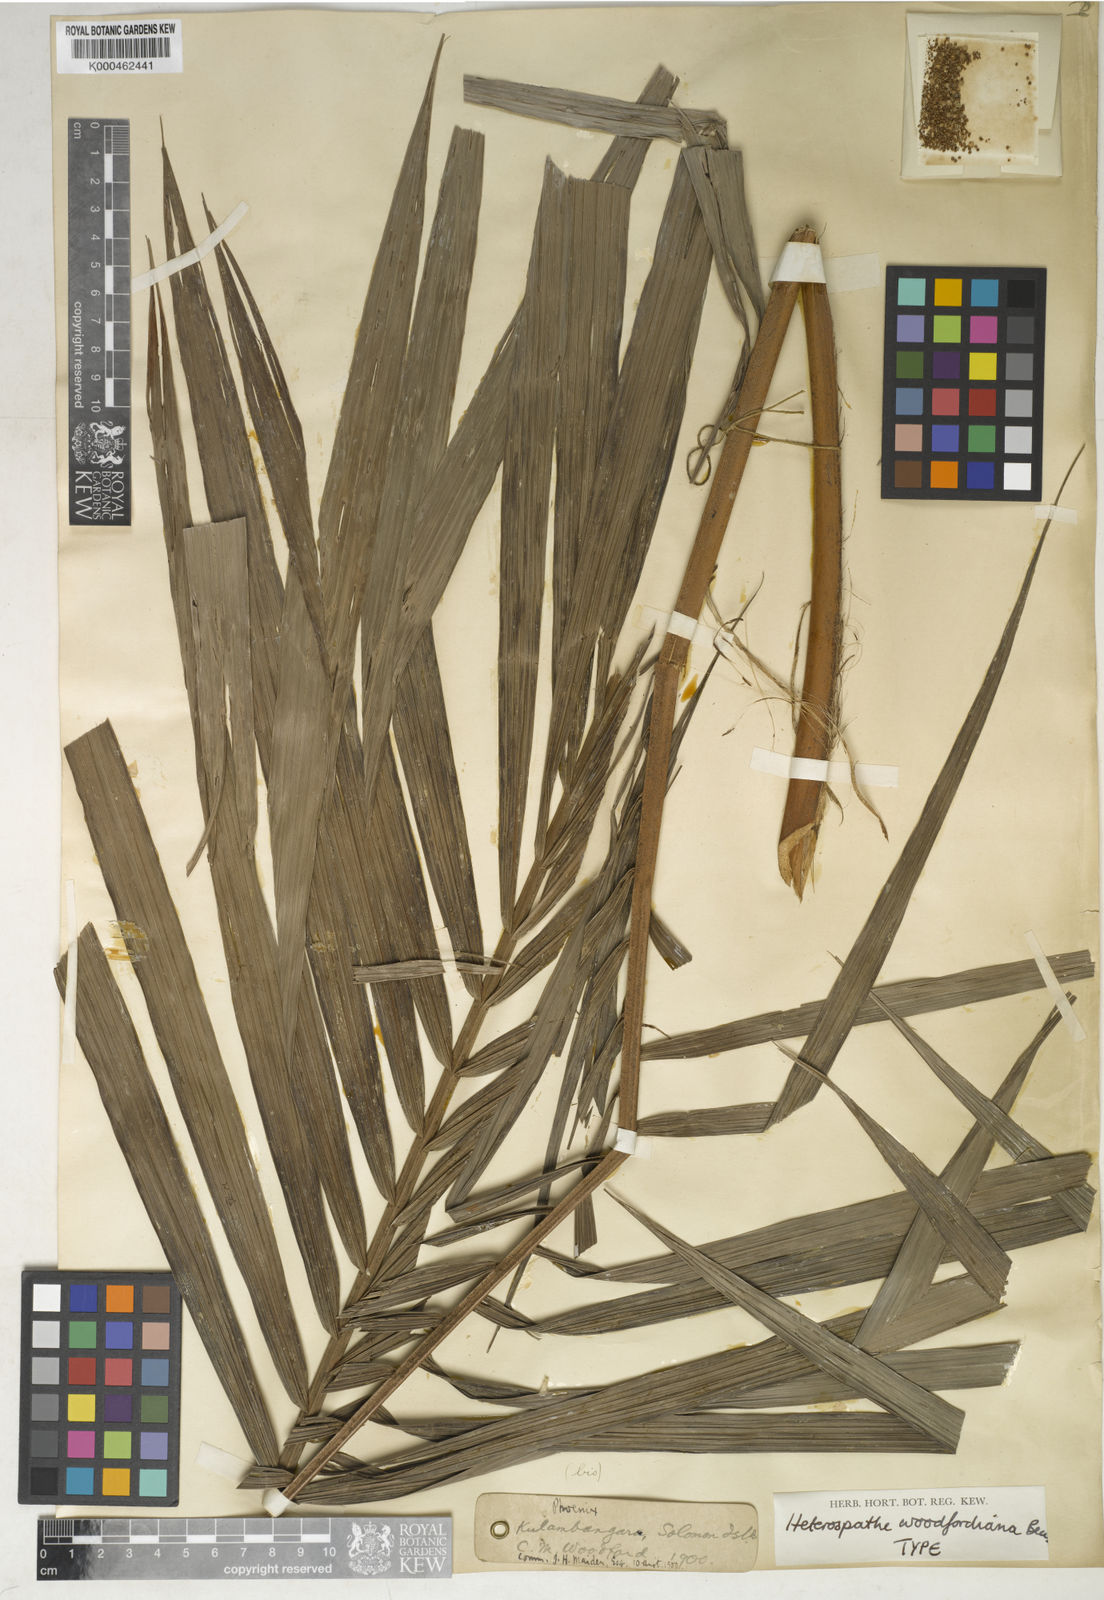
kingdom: Plantae
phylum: Tracheophyta
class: Liliopsida
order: Arecales
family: Arecaceae
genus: Heterospathe
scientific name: Heterospathe woodfordiana
